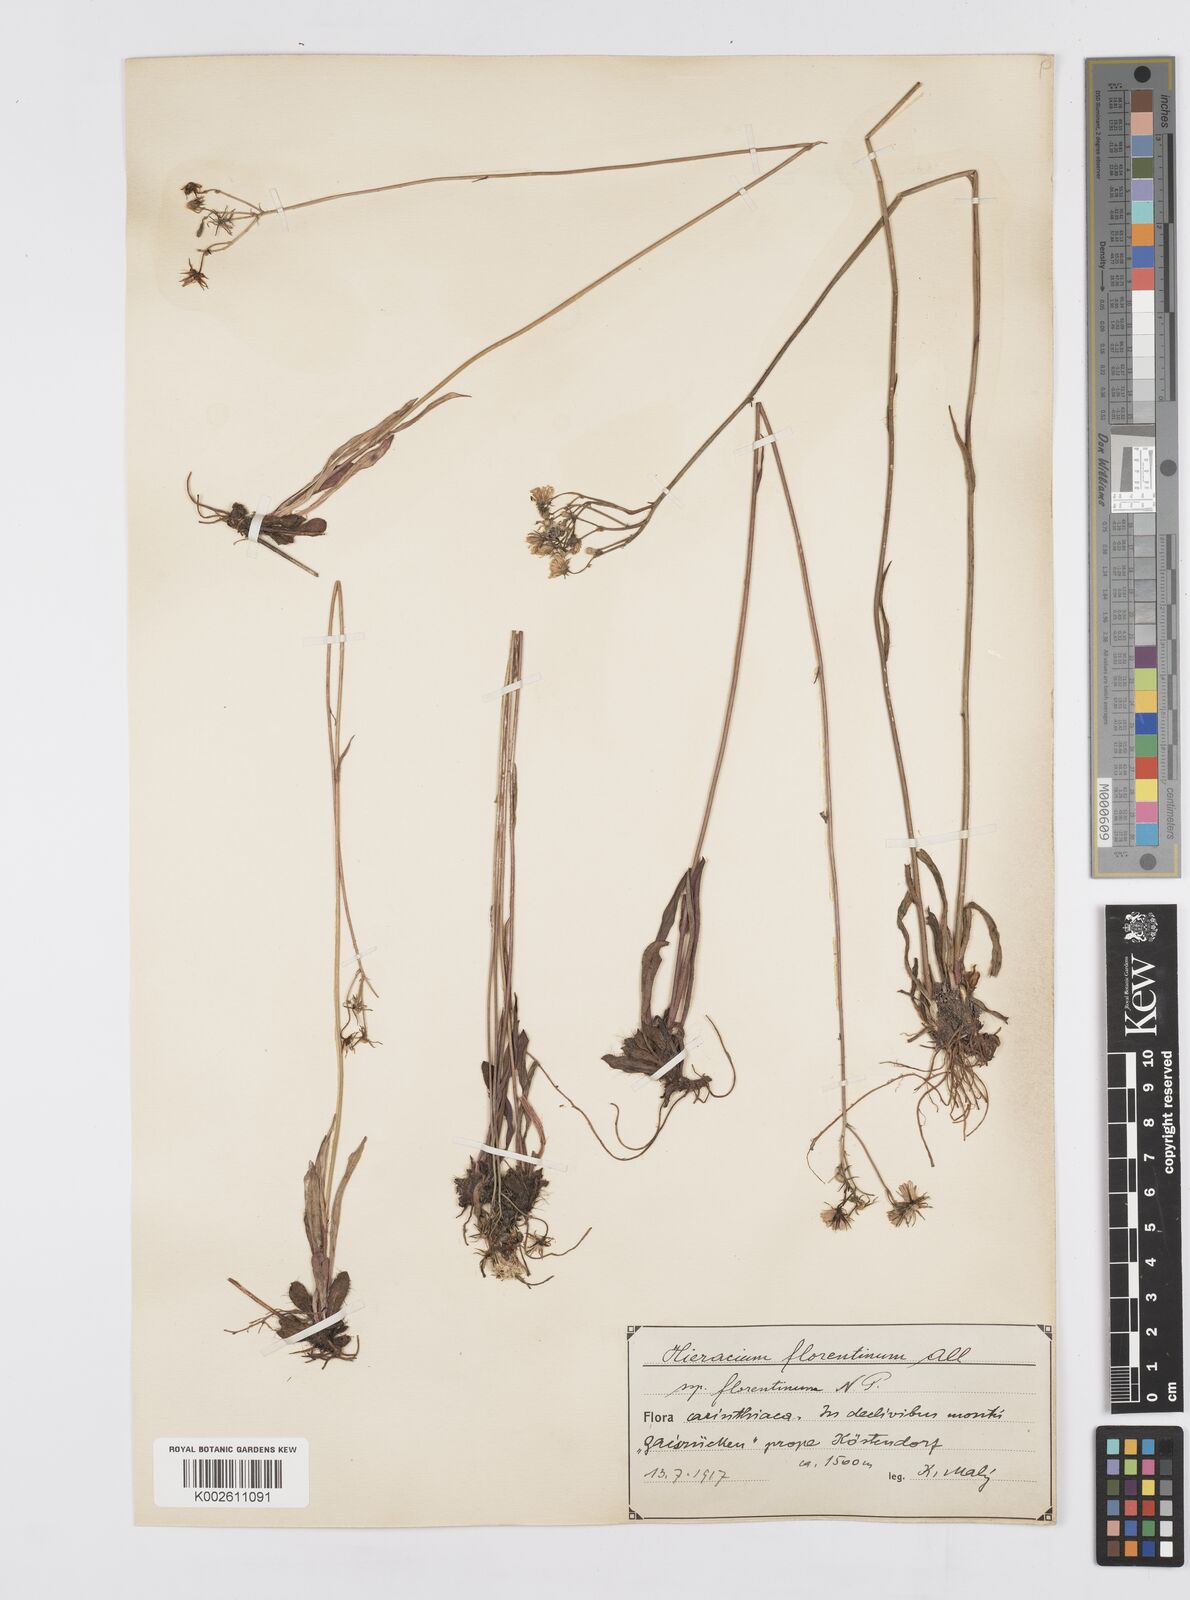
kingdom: Plantae
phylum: Tracheophyta
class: Magnoliopsida
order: Asterales
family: Asteraceae
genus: Pilosella
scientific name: Pilosella piloselloides
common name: Glaucous king-devil
